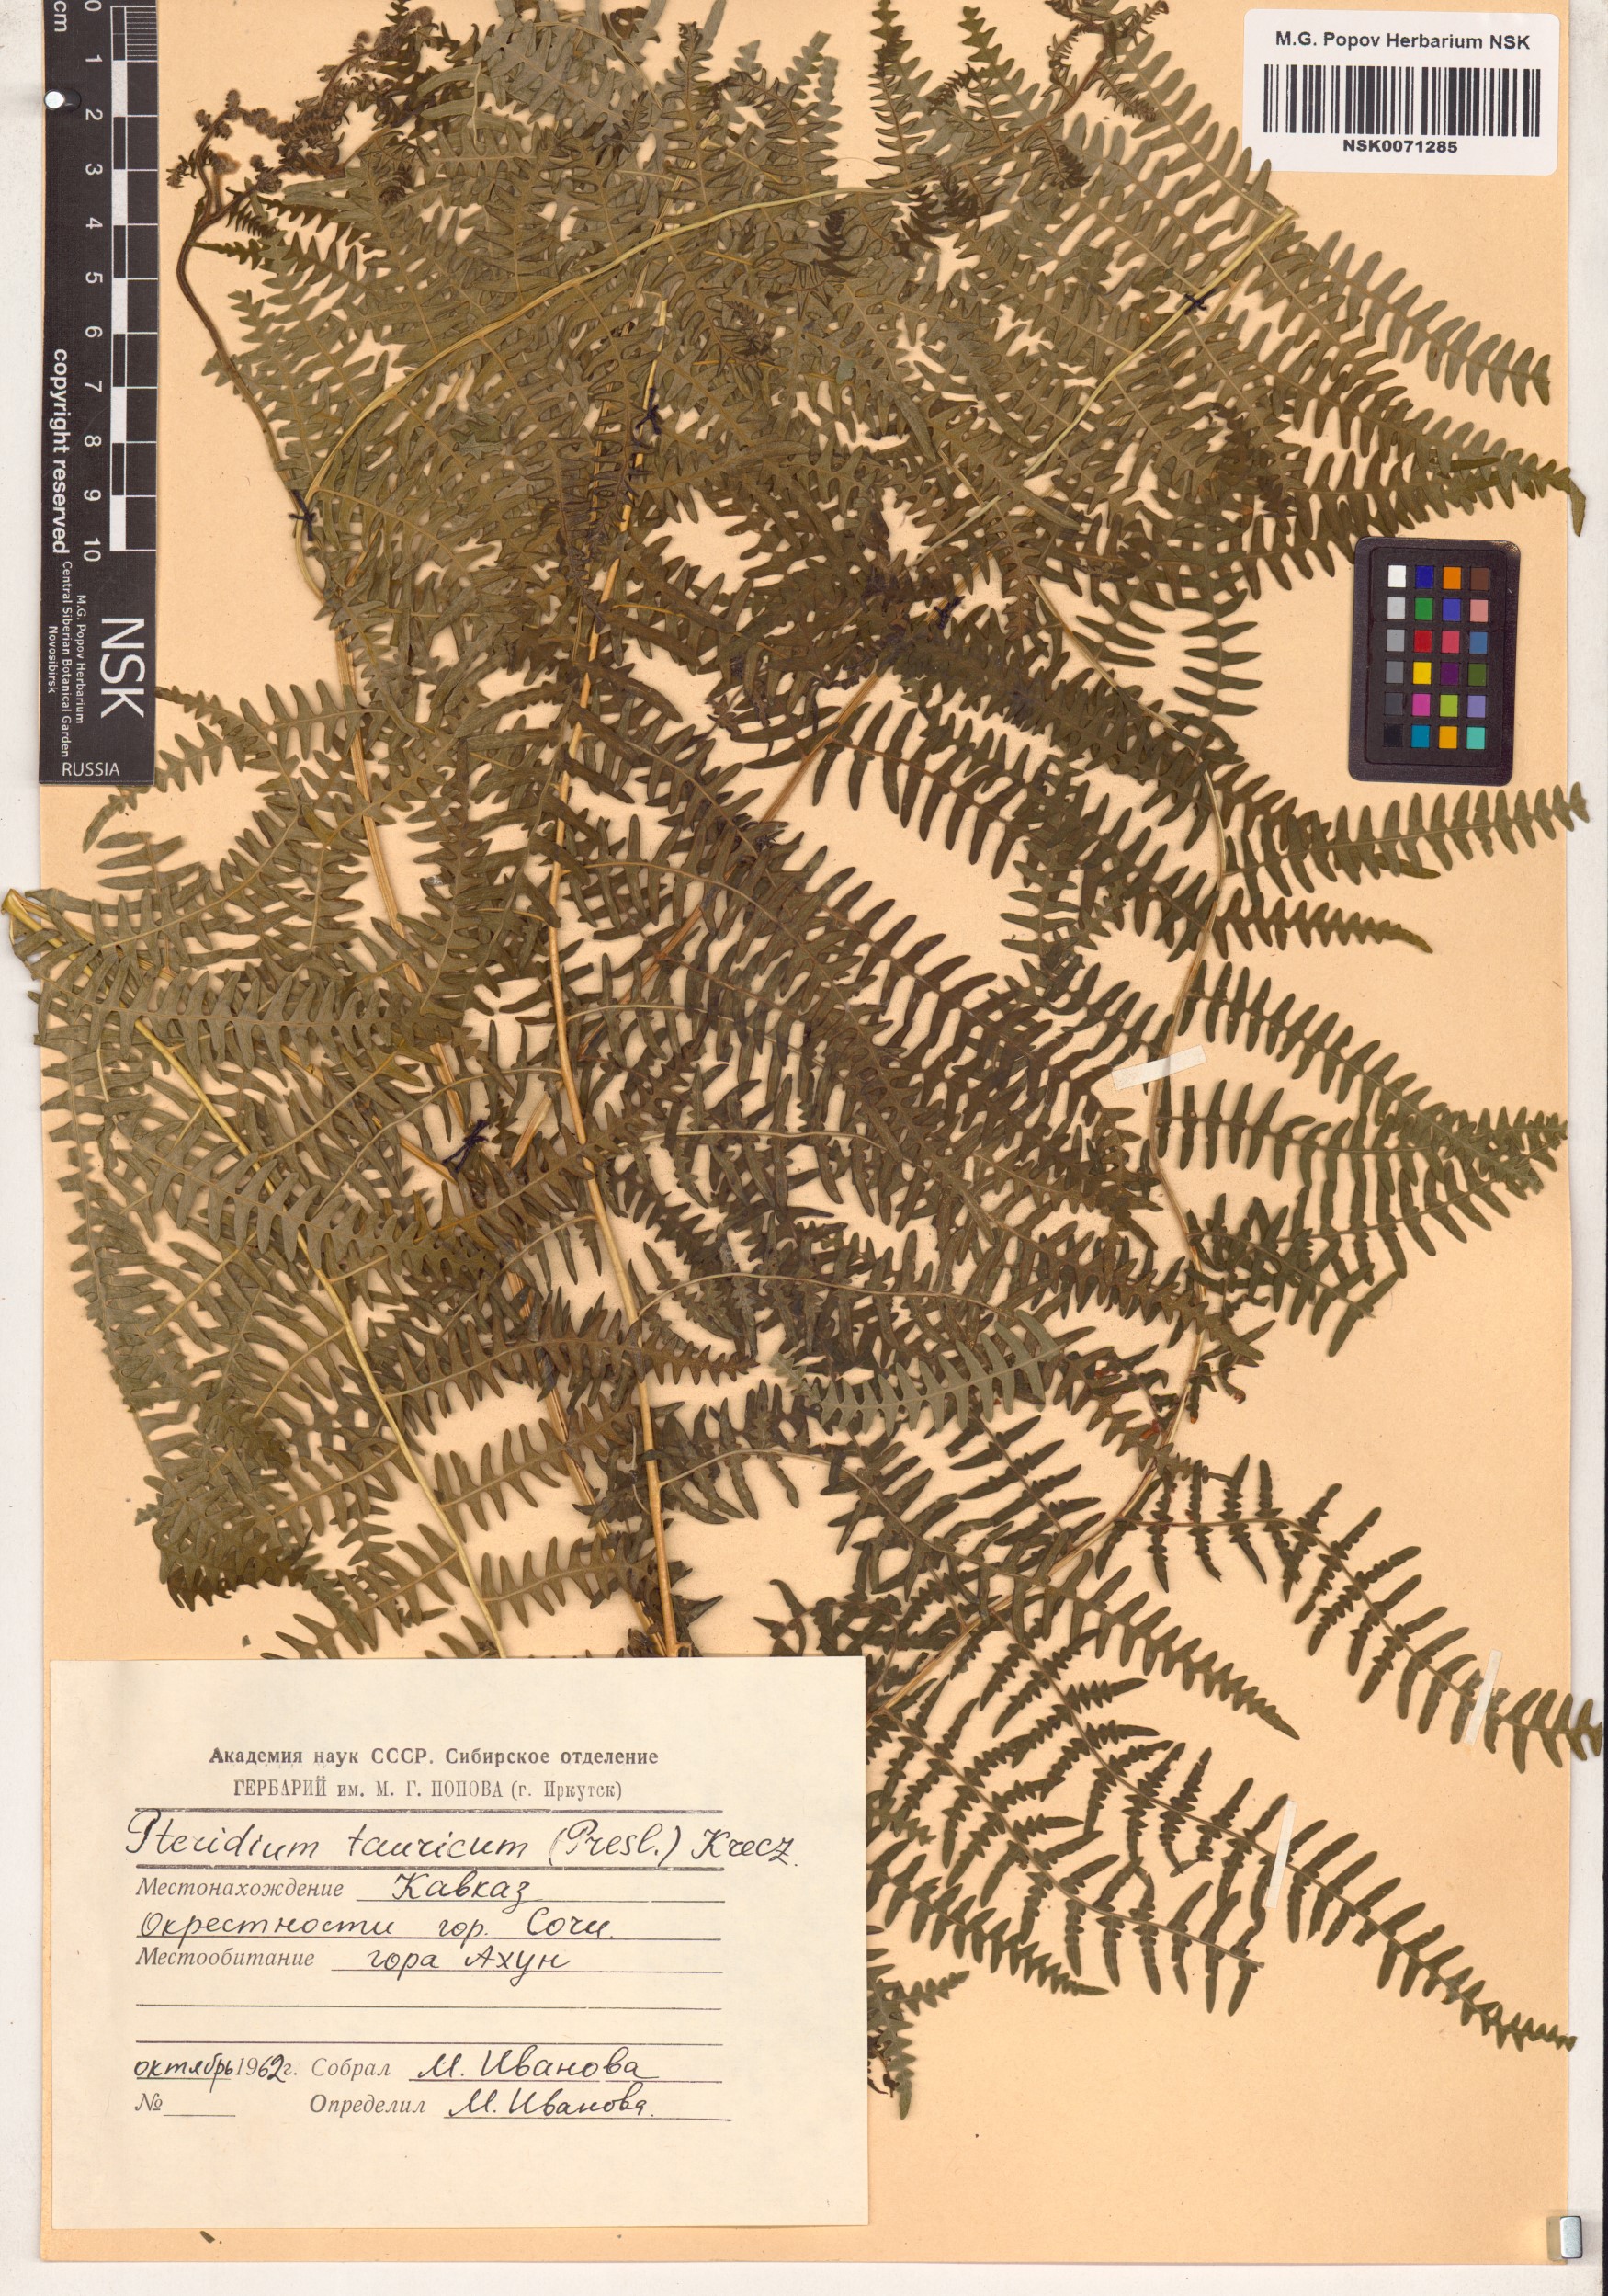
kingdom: Plantae
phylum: Tracheophyta
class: Polypodiopsida
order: Polypodiales
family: Dennstaedtiaceae
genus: Pteridium
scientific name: Pteridium aquilinum
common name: Bracken
